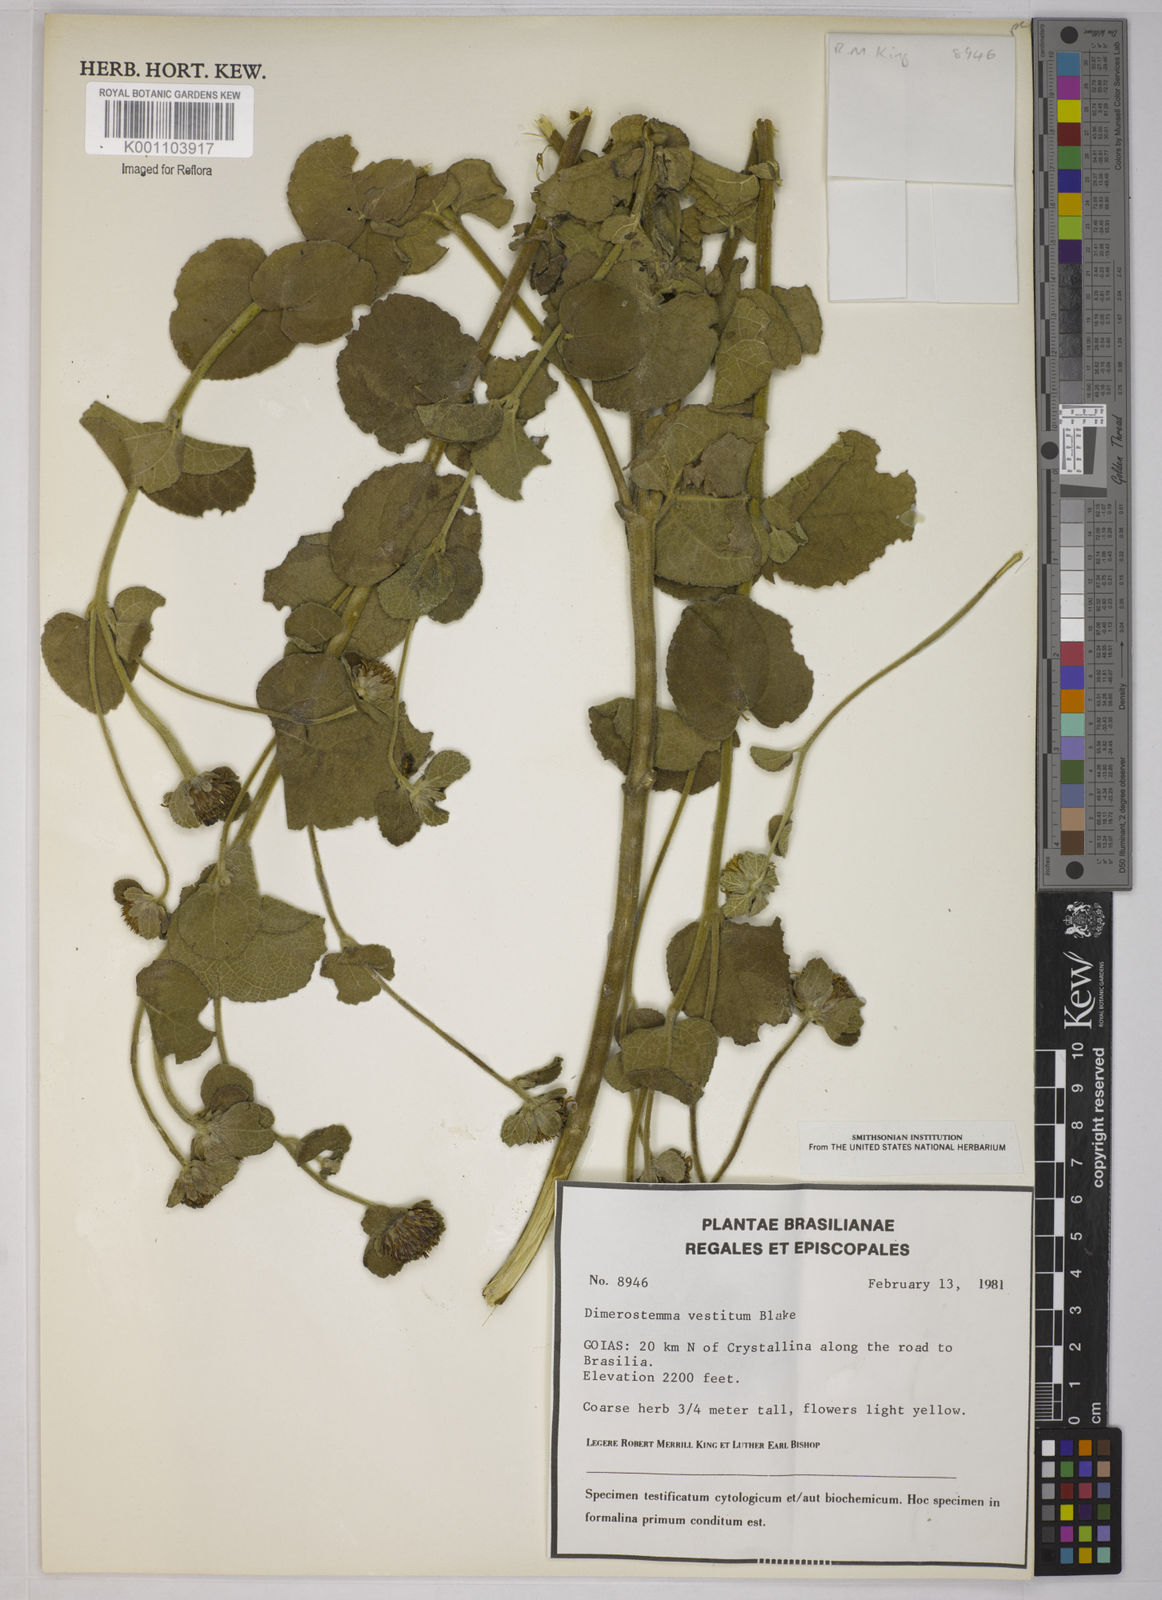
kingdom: Plantae
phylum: Tracheophyta
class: Magnoliopsida
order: Asterales
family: Asteraceae
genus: Dimerostemma
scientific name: Dimerostemma vestitum
